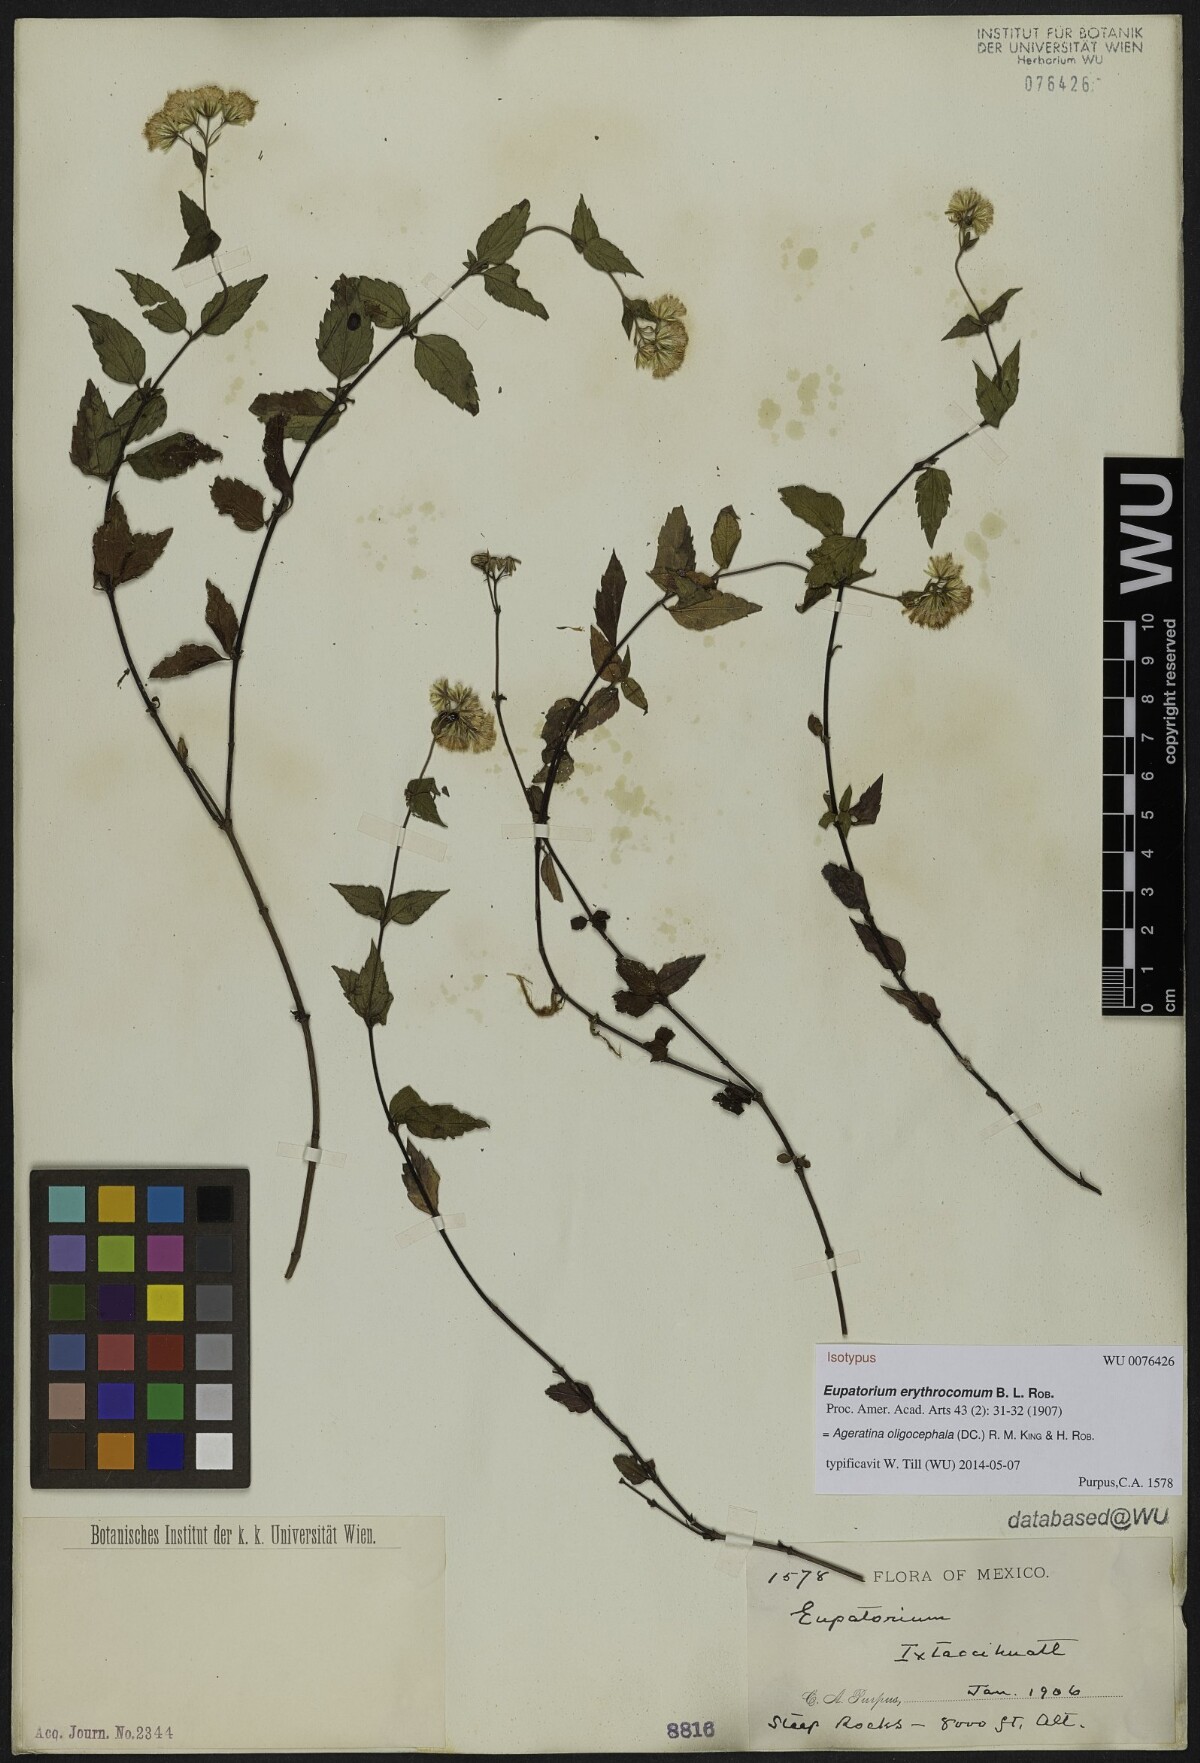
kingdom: Plantae
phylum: Tracheophyta
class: Magnoliopsida
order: Asterales
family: Asteraceae
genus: Ageratina
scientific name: Ageratina oligocephala
